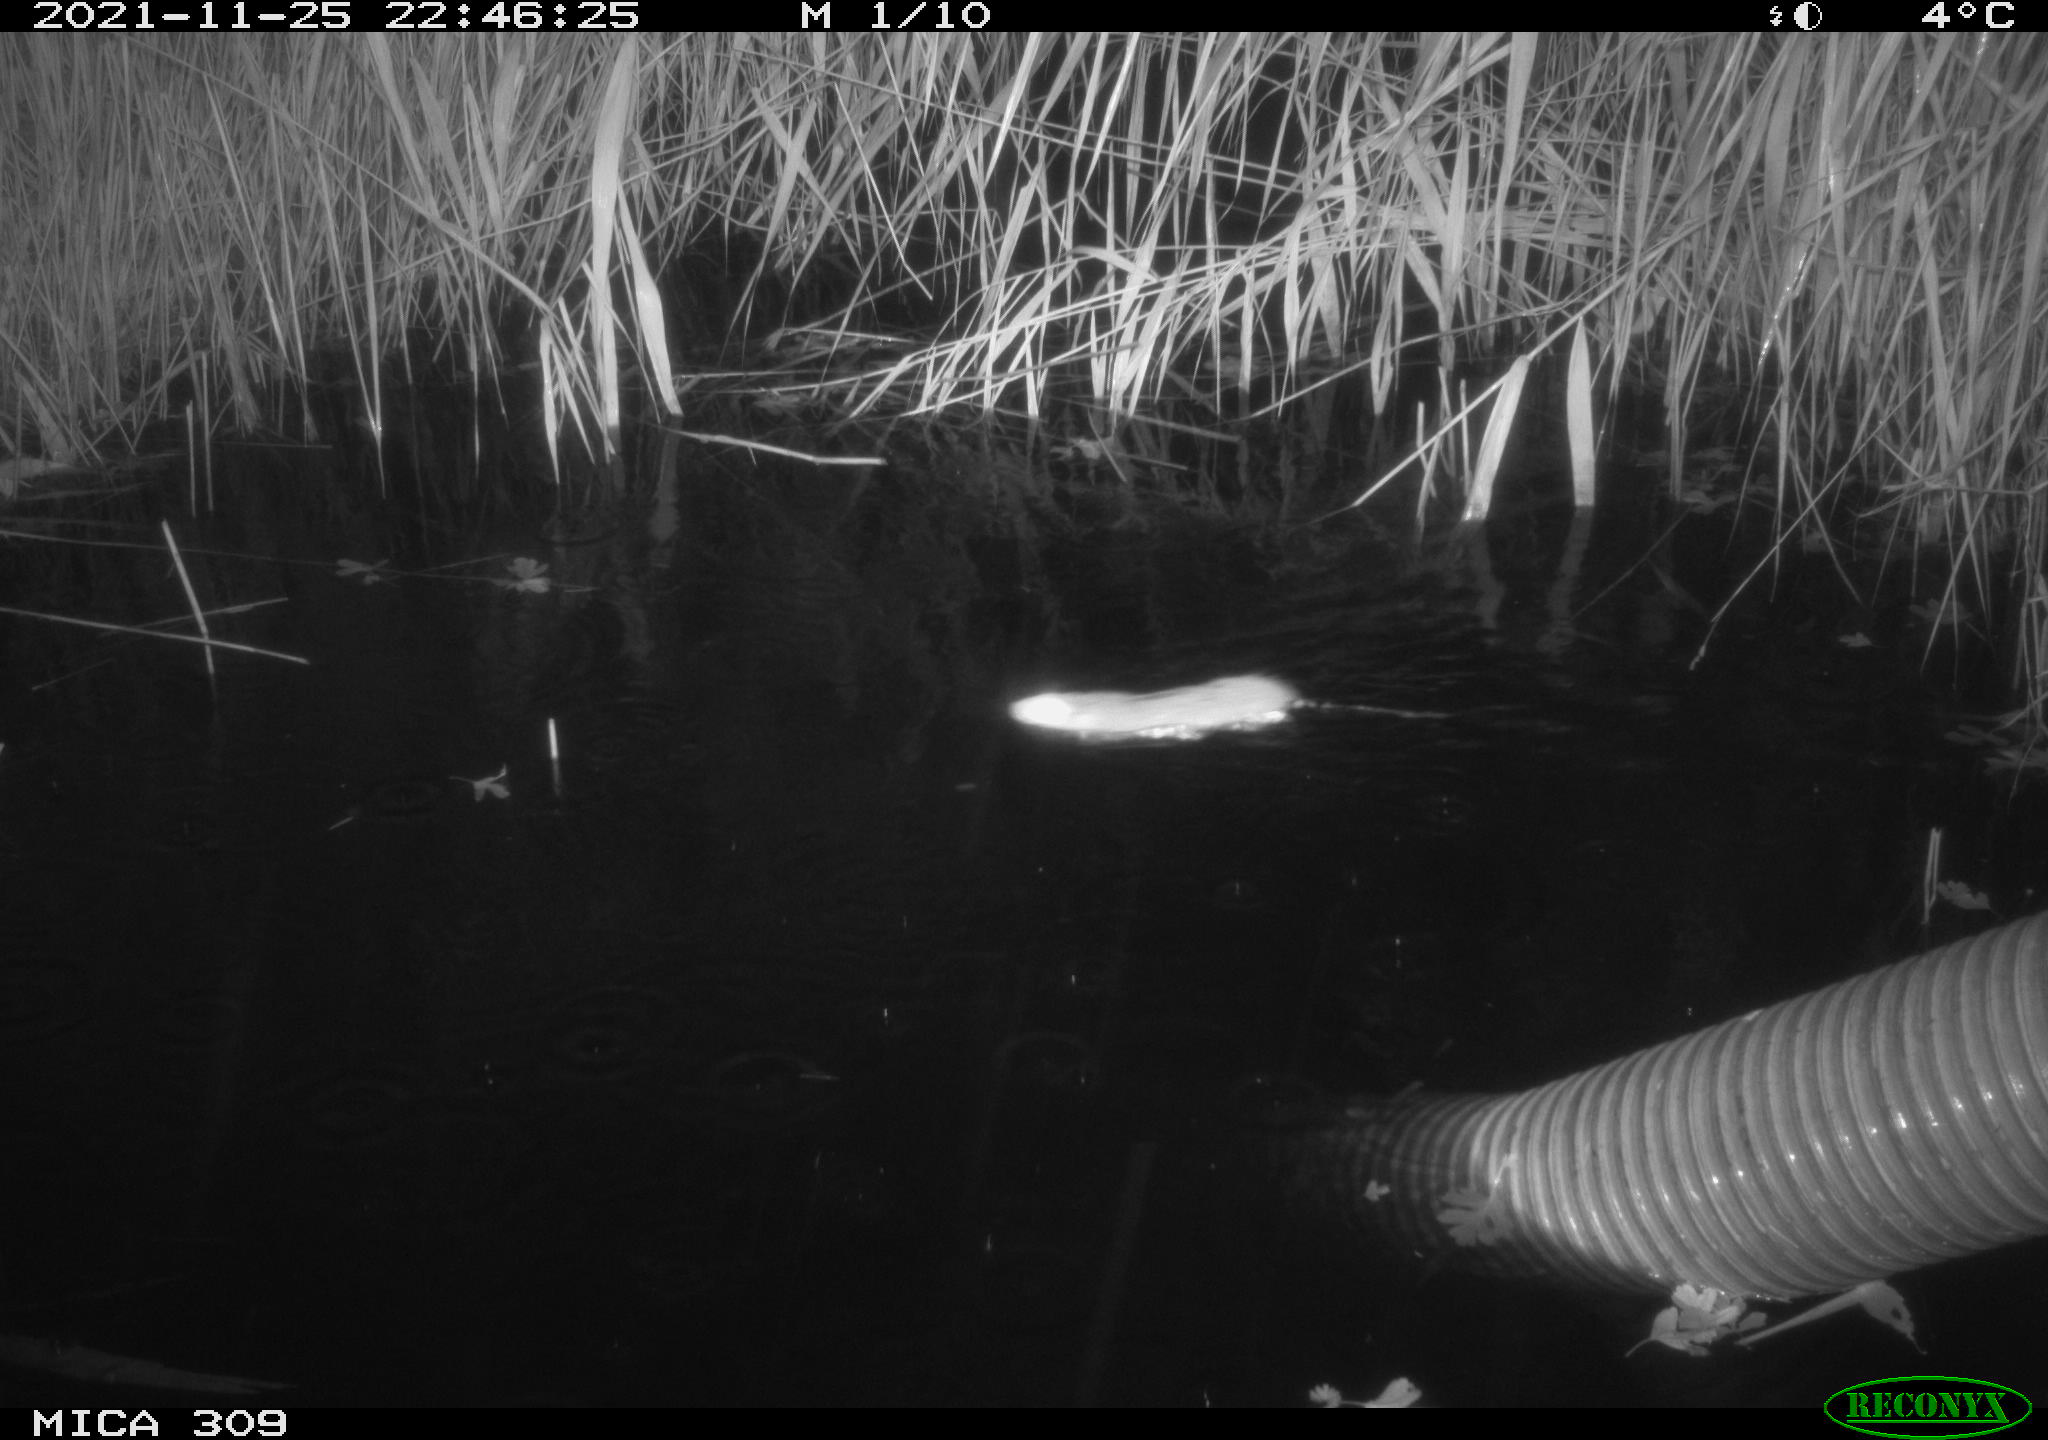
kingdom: Animalia
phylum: Chordata
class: Mammalia
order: Rodentia
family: Muridae
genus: Rattus
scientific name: Rattus norvegicus
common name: Brown rat
